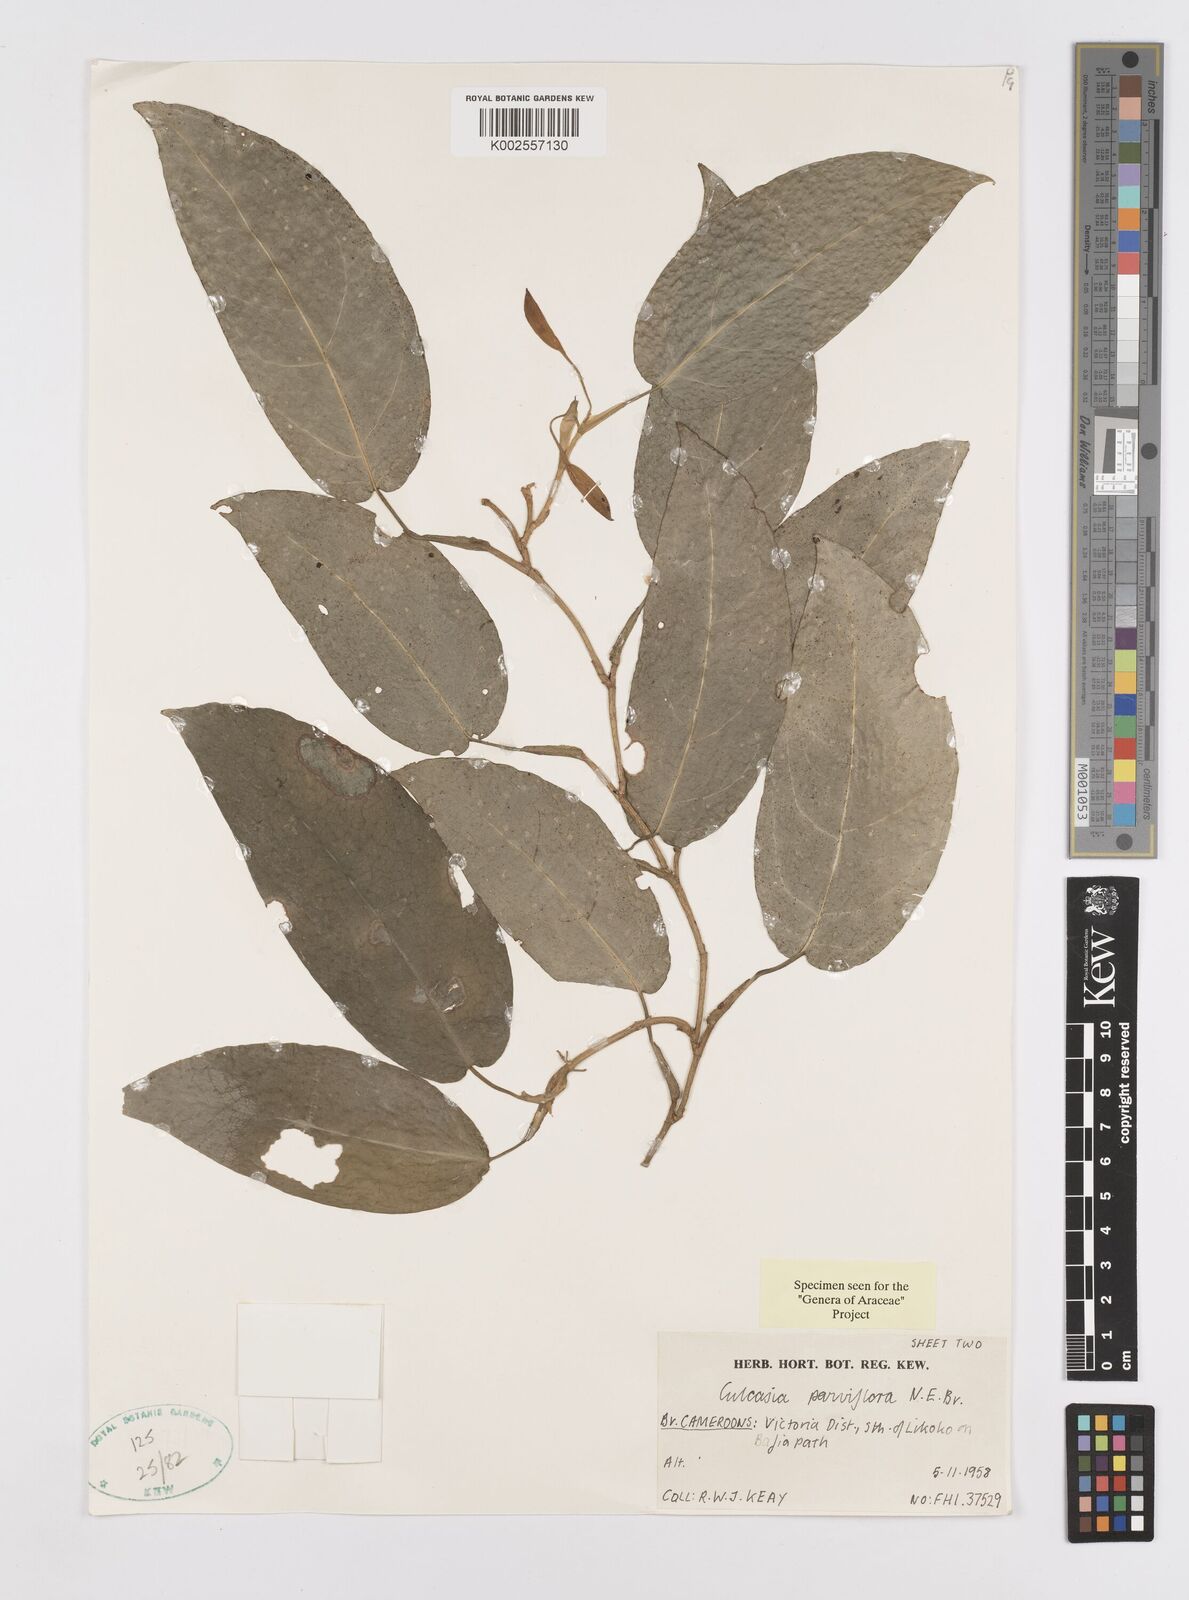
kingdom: Plantae
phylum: Tracheophyta
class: Liliopsida
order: Alismatales
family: Araceae
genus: Culcasia
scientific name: Culcasia parviflora
